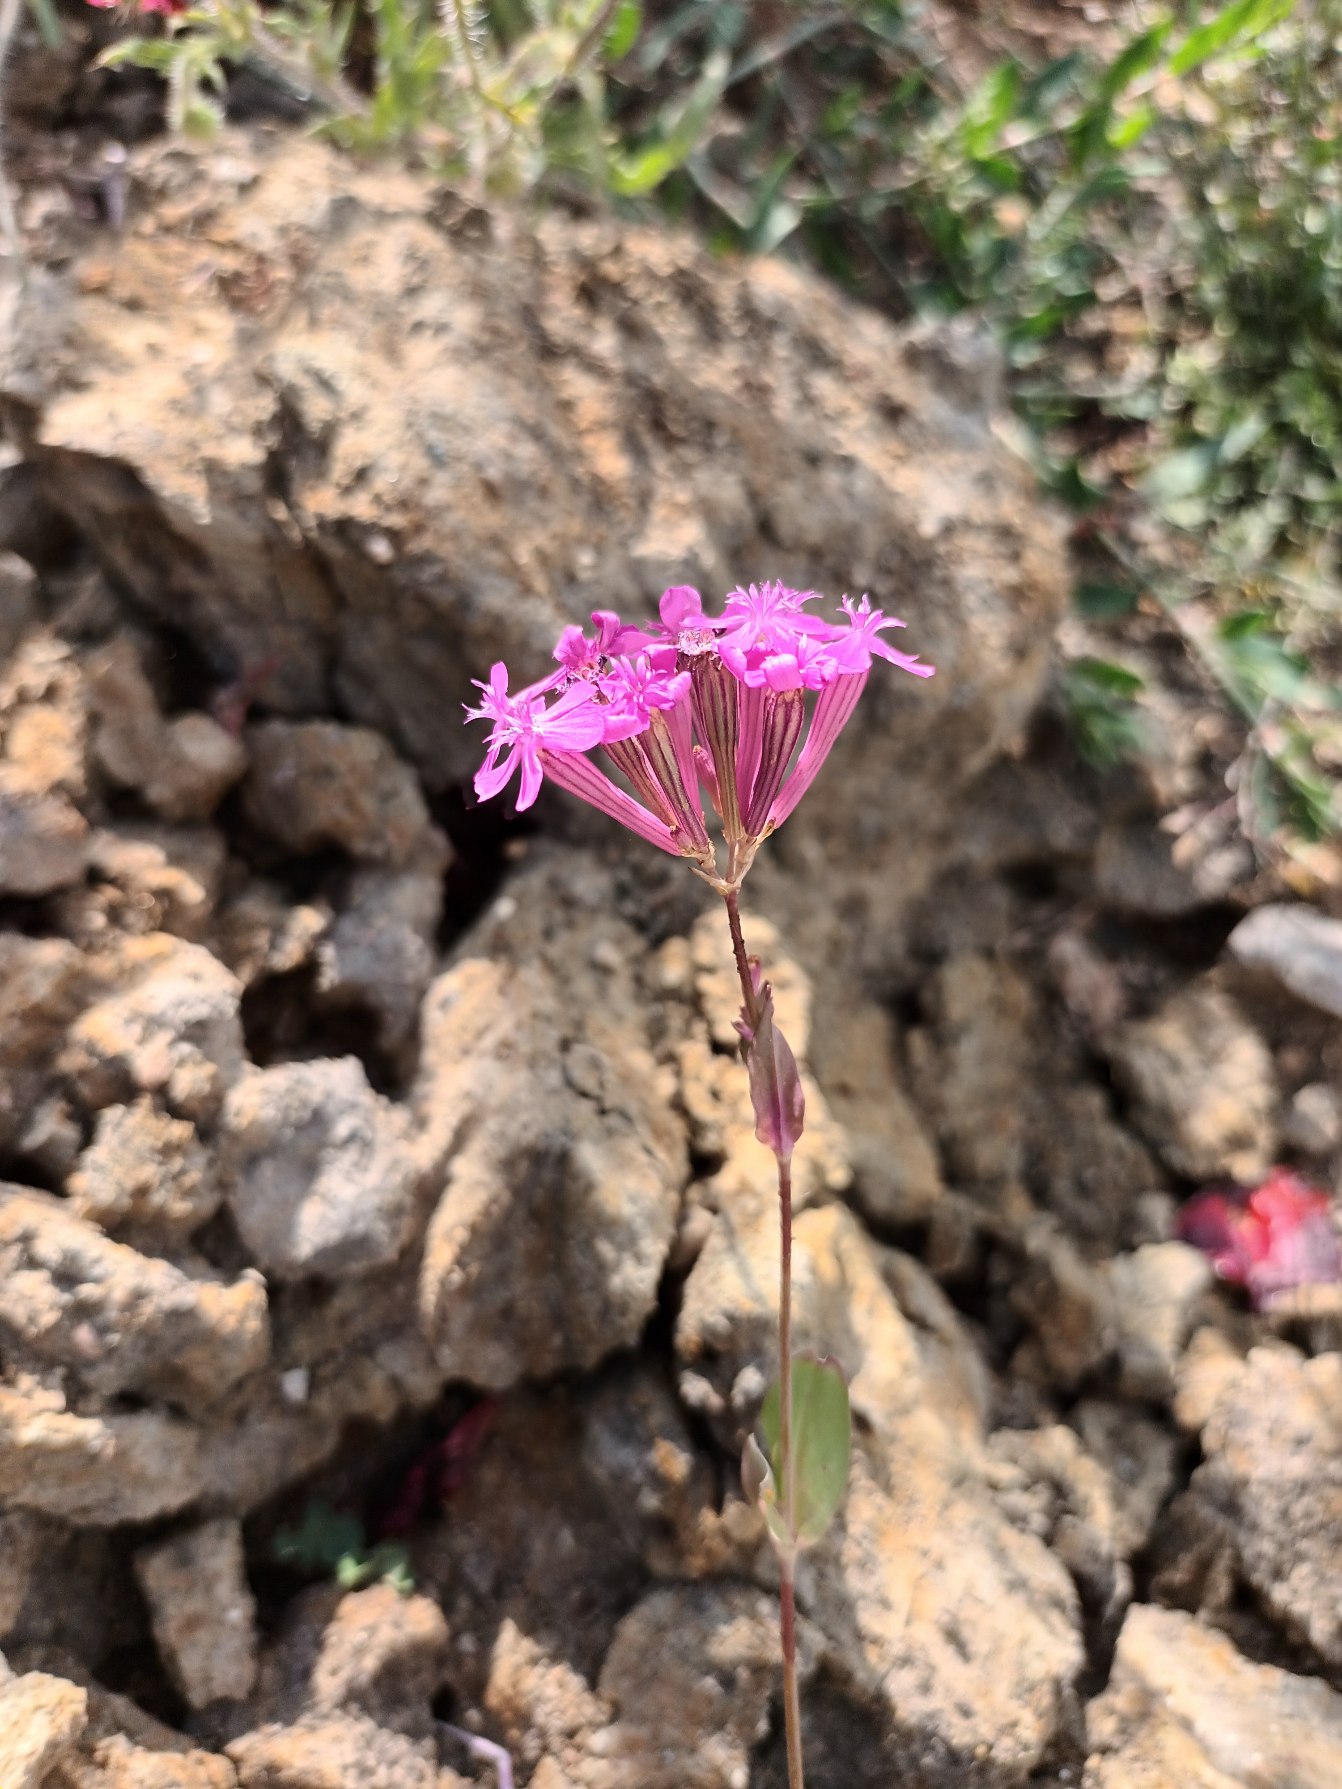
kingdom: Plantae
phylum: Tracheophyta
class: Magnoliopsida
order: Caryophyllales
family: Caryophyllaceae
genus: Atocion
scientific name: Atocion armeria
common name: Knippe-limurt
